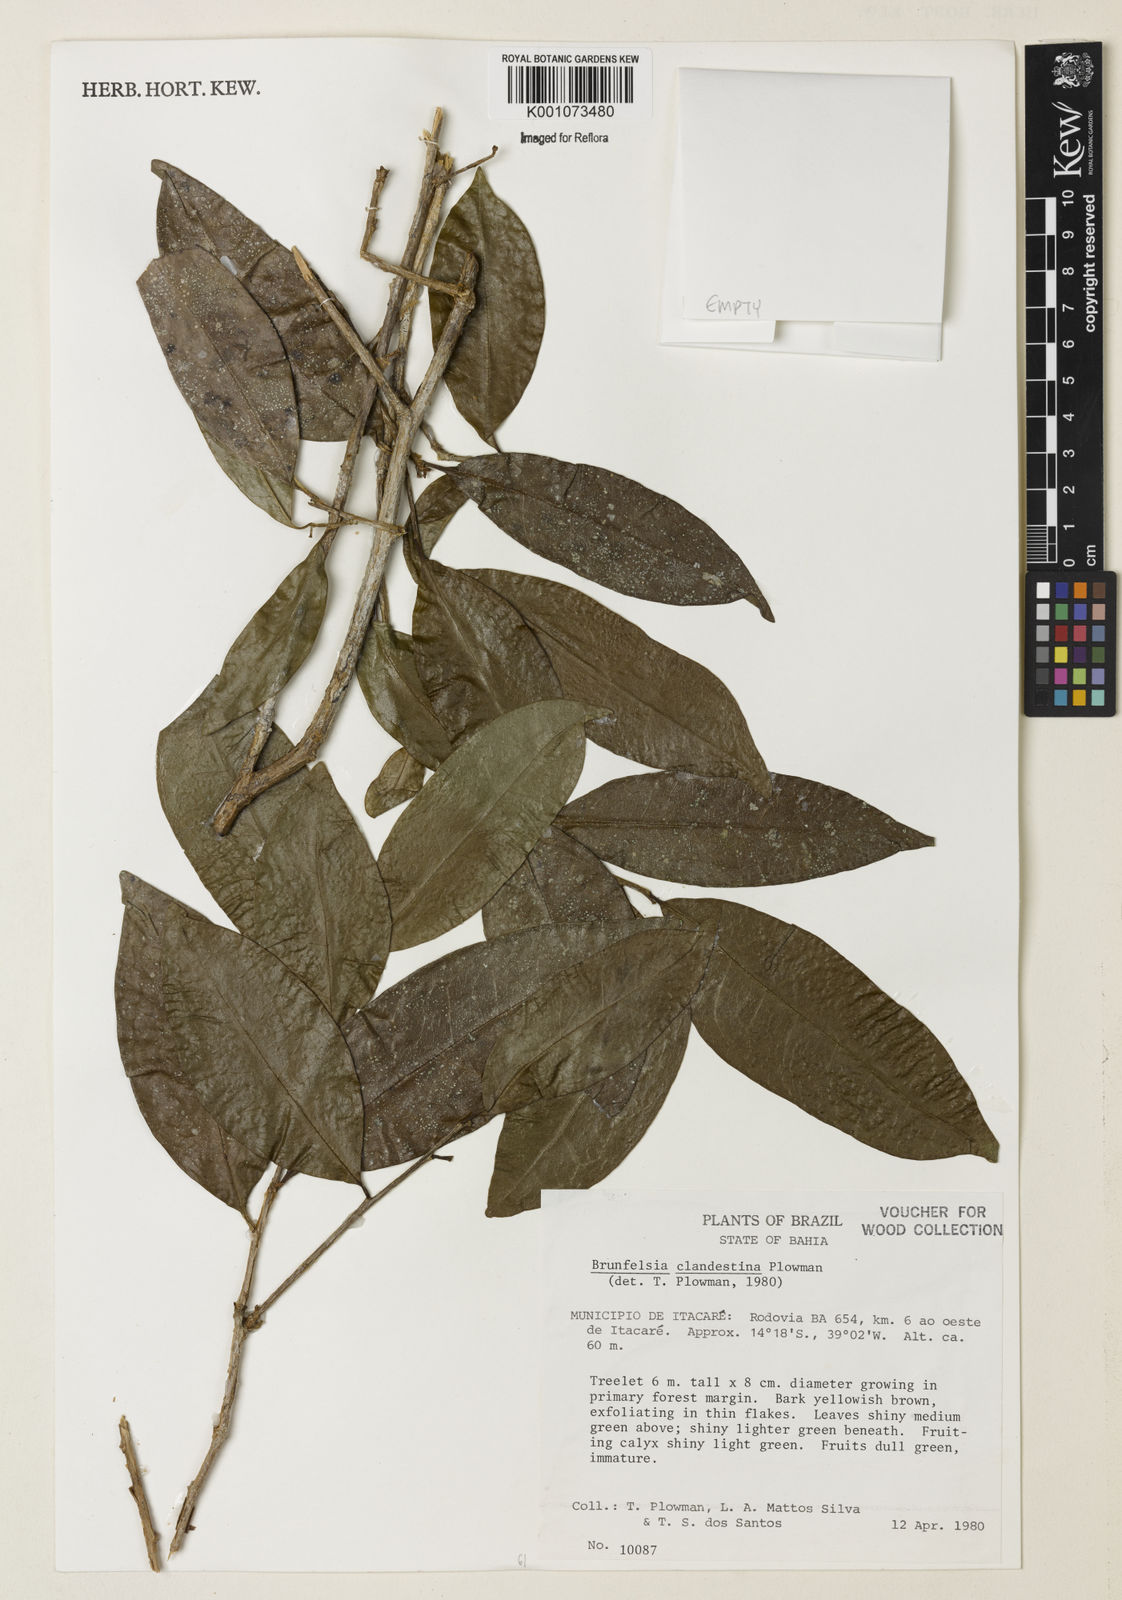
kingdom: Plantae
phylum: Tracheophyta
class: Magnoliopsida
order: Solanales
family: Solanaceae
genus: Brunfelsia
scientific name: Brunfelsia clandestina
